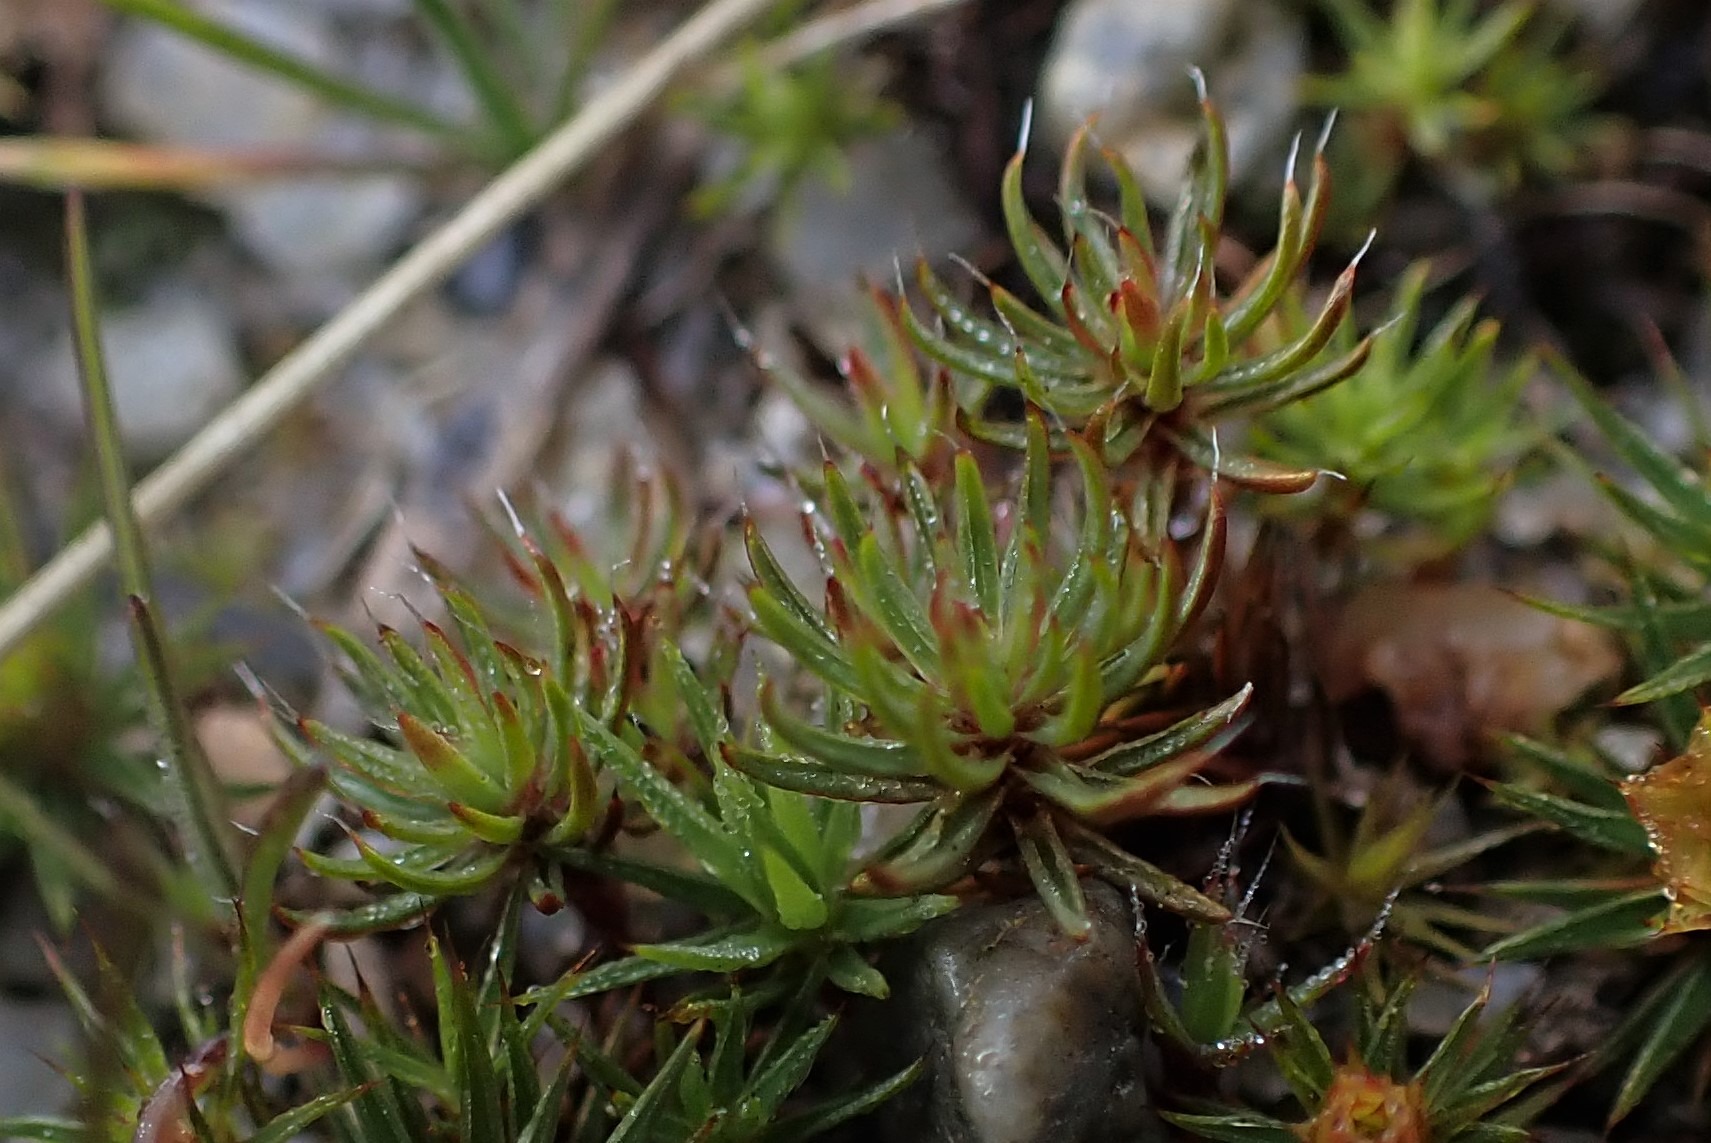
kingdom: Plantae
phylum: Bryophyta
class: Polytrichopsida
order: Polytrichales
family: Polytrichaceae
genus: Polytrichum
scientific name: Polytrichum piliferum
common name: Hårspidset jomfruhår
